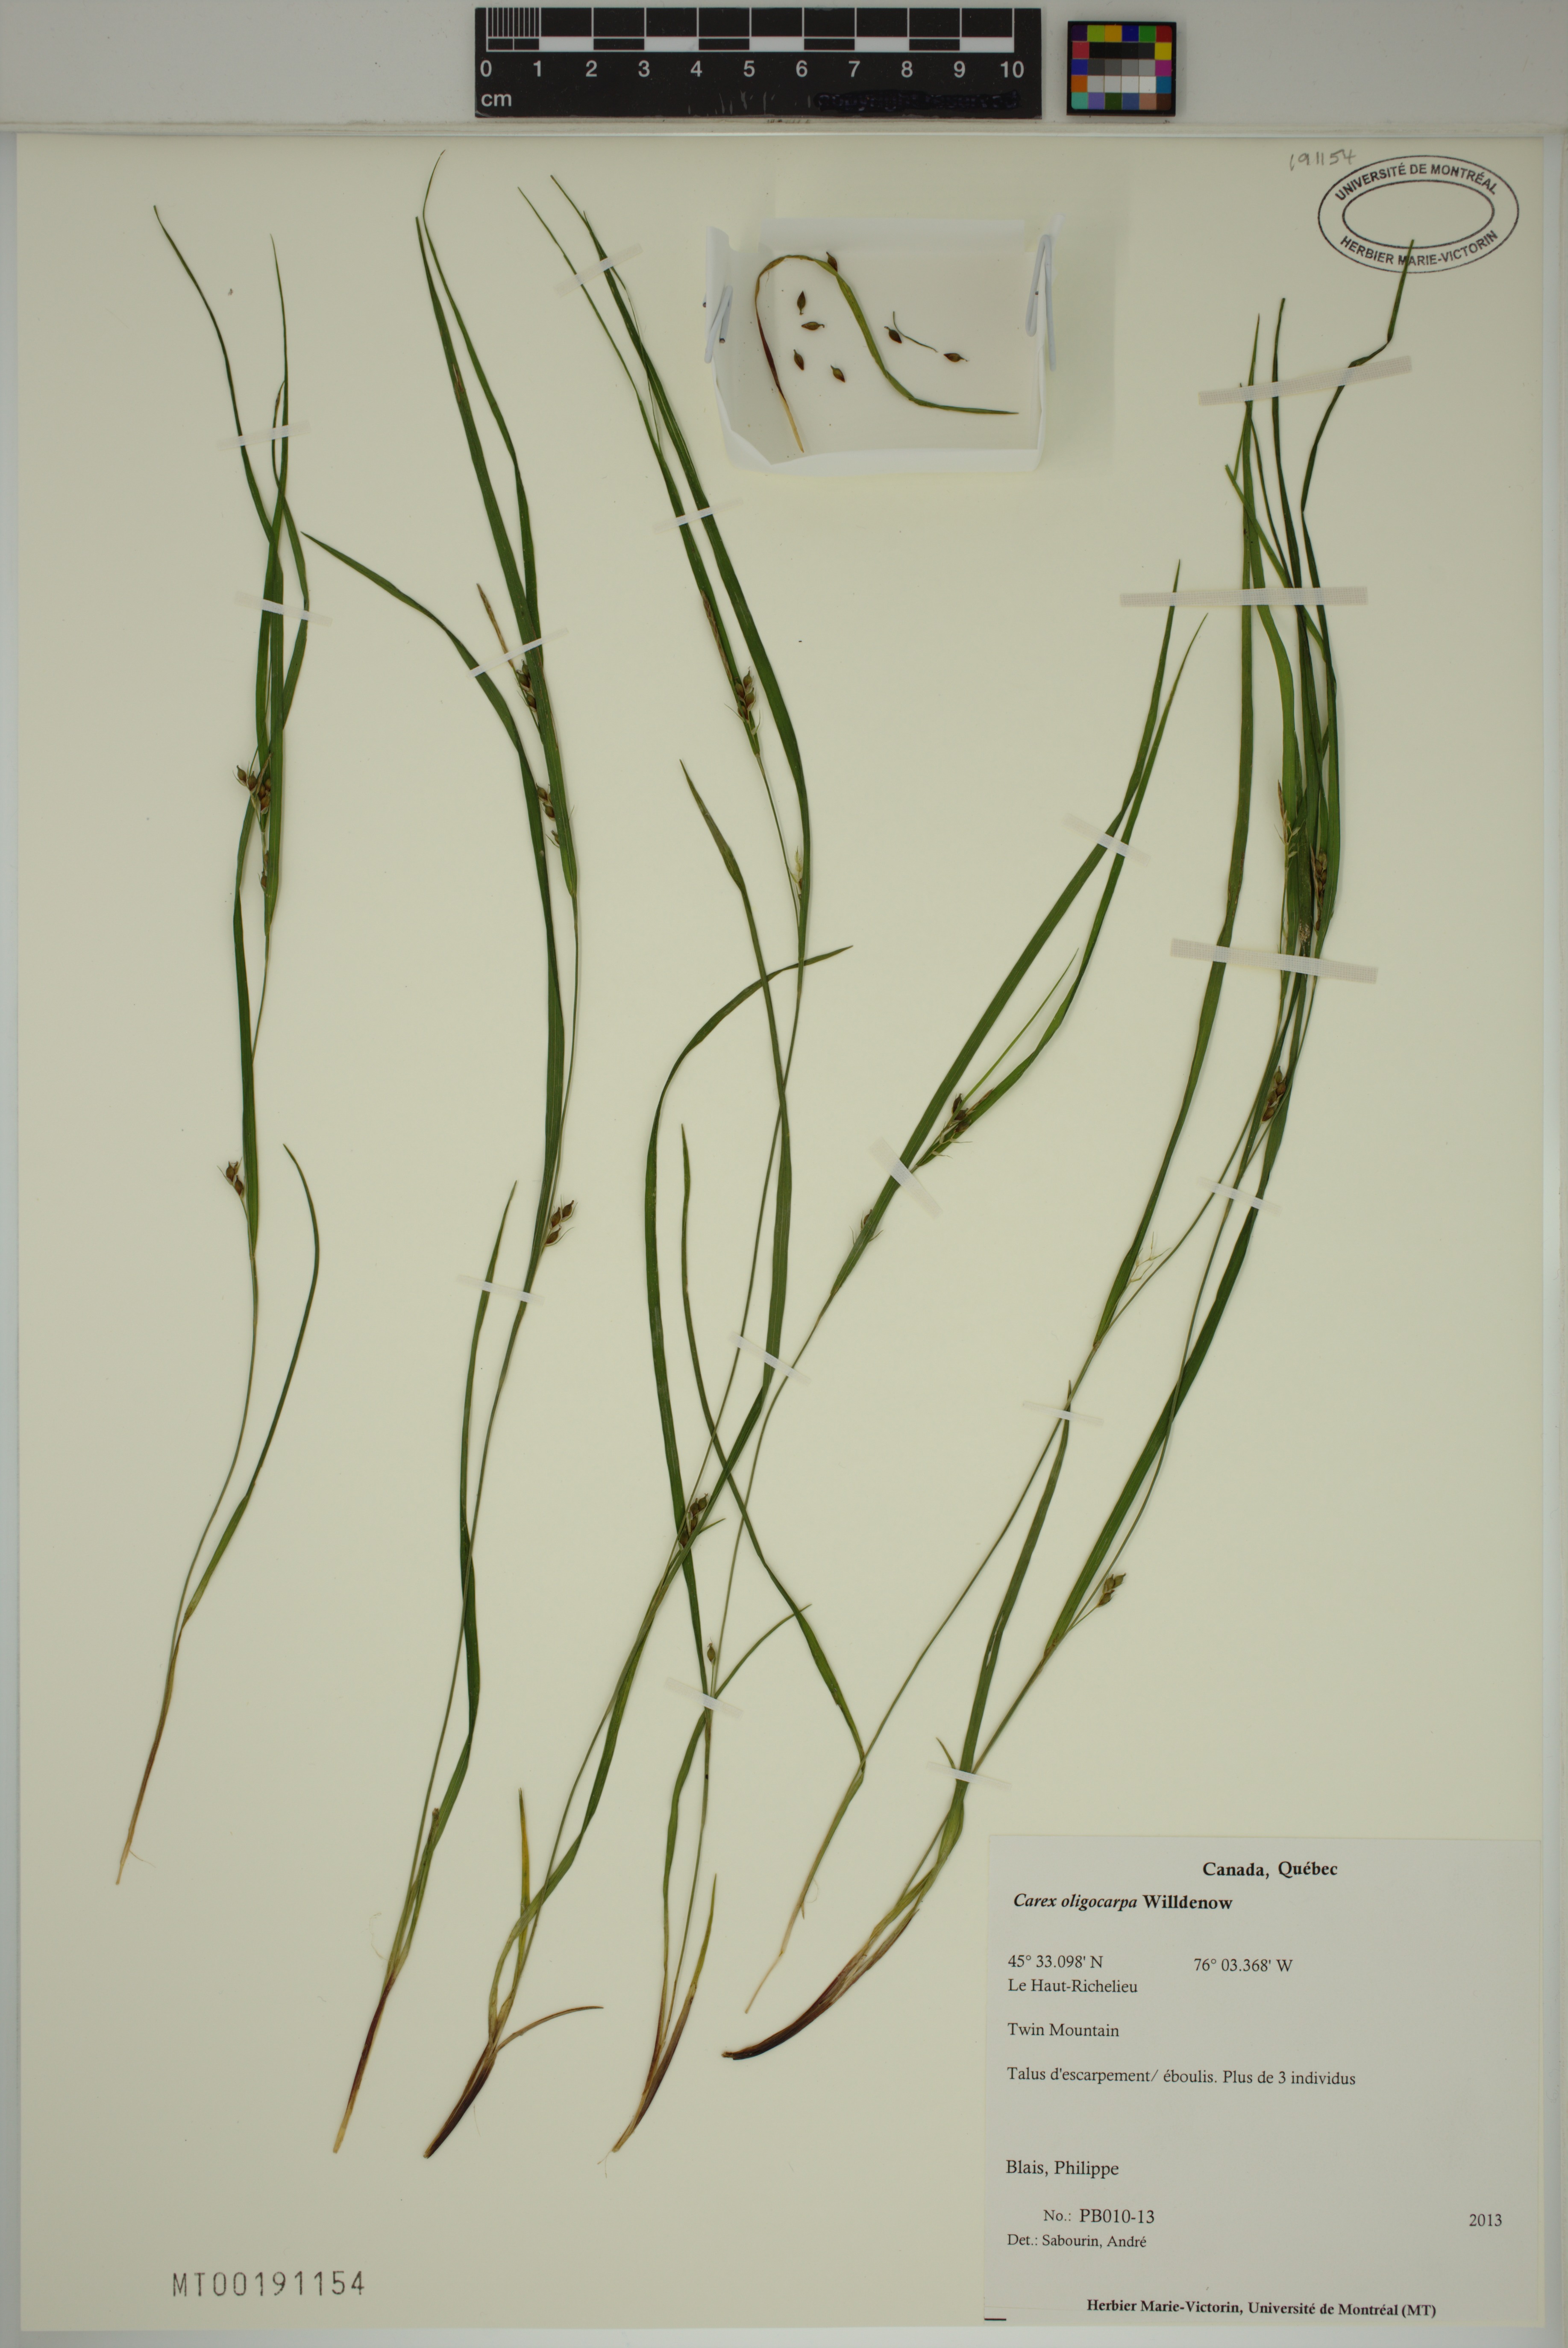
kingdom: Plantae
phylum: Tracheophyta
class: Liliopsida
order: Poales
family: Cyperaceae
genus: Carex
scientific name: Carex oligocarpa
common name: Eastern few-fruited sedge
